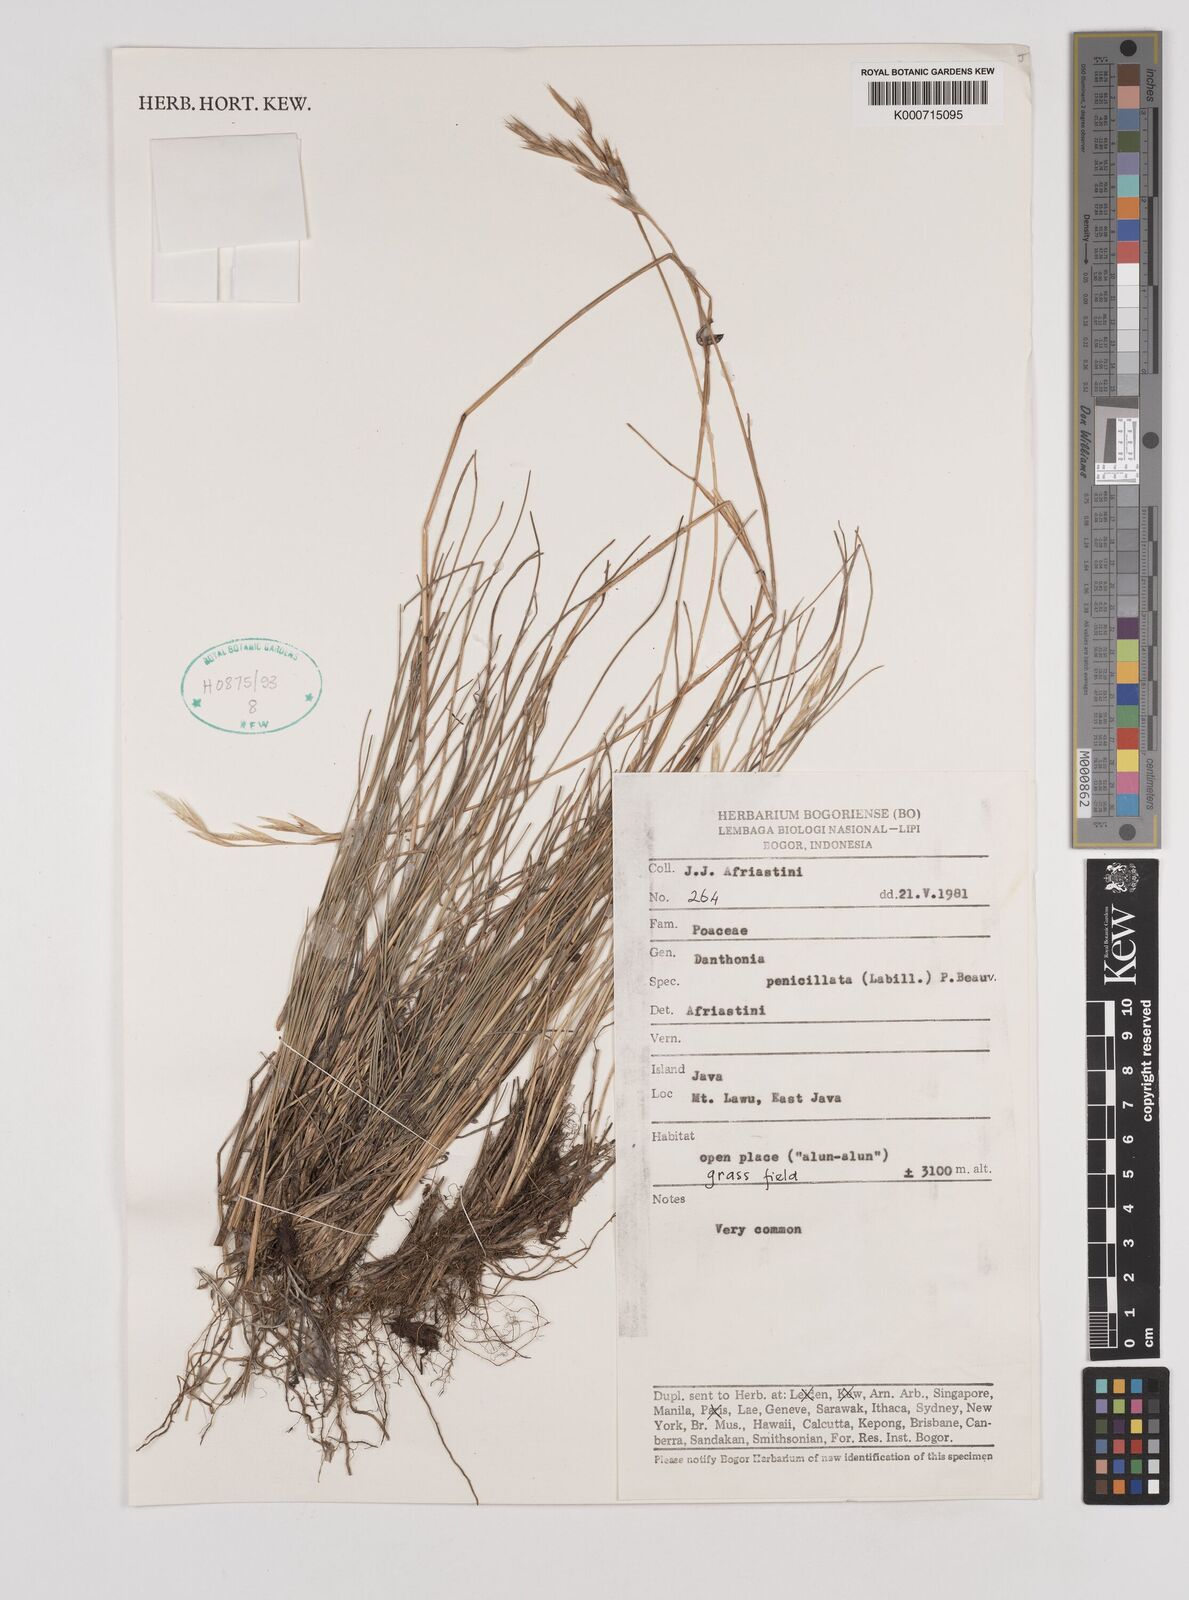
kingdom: Plantae
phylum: Tracheophyta
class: Liliopsida
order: Poales
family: Poaceae
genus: Rytidosperma
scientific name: Rytidosperma penicillatum
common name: Hairy wallaby grass
